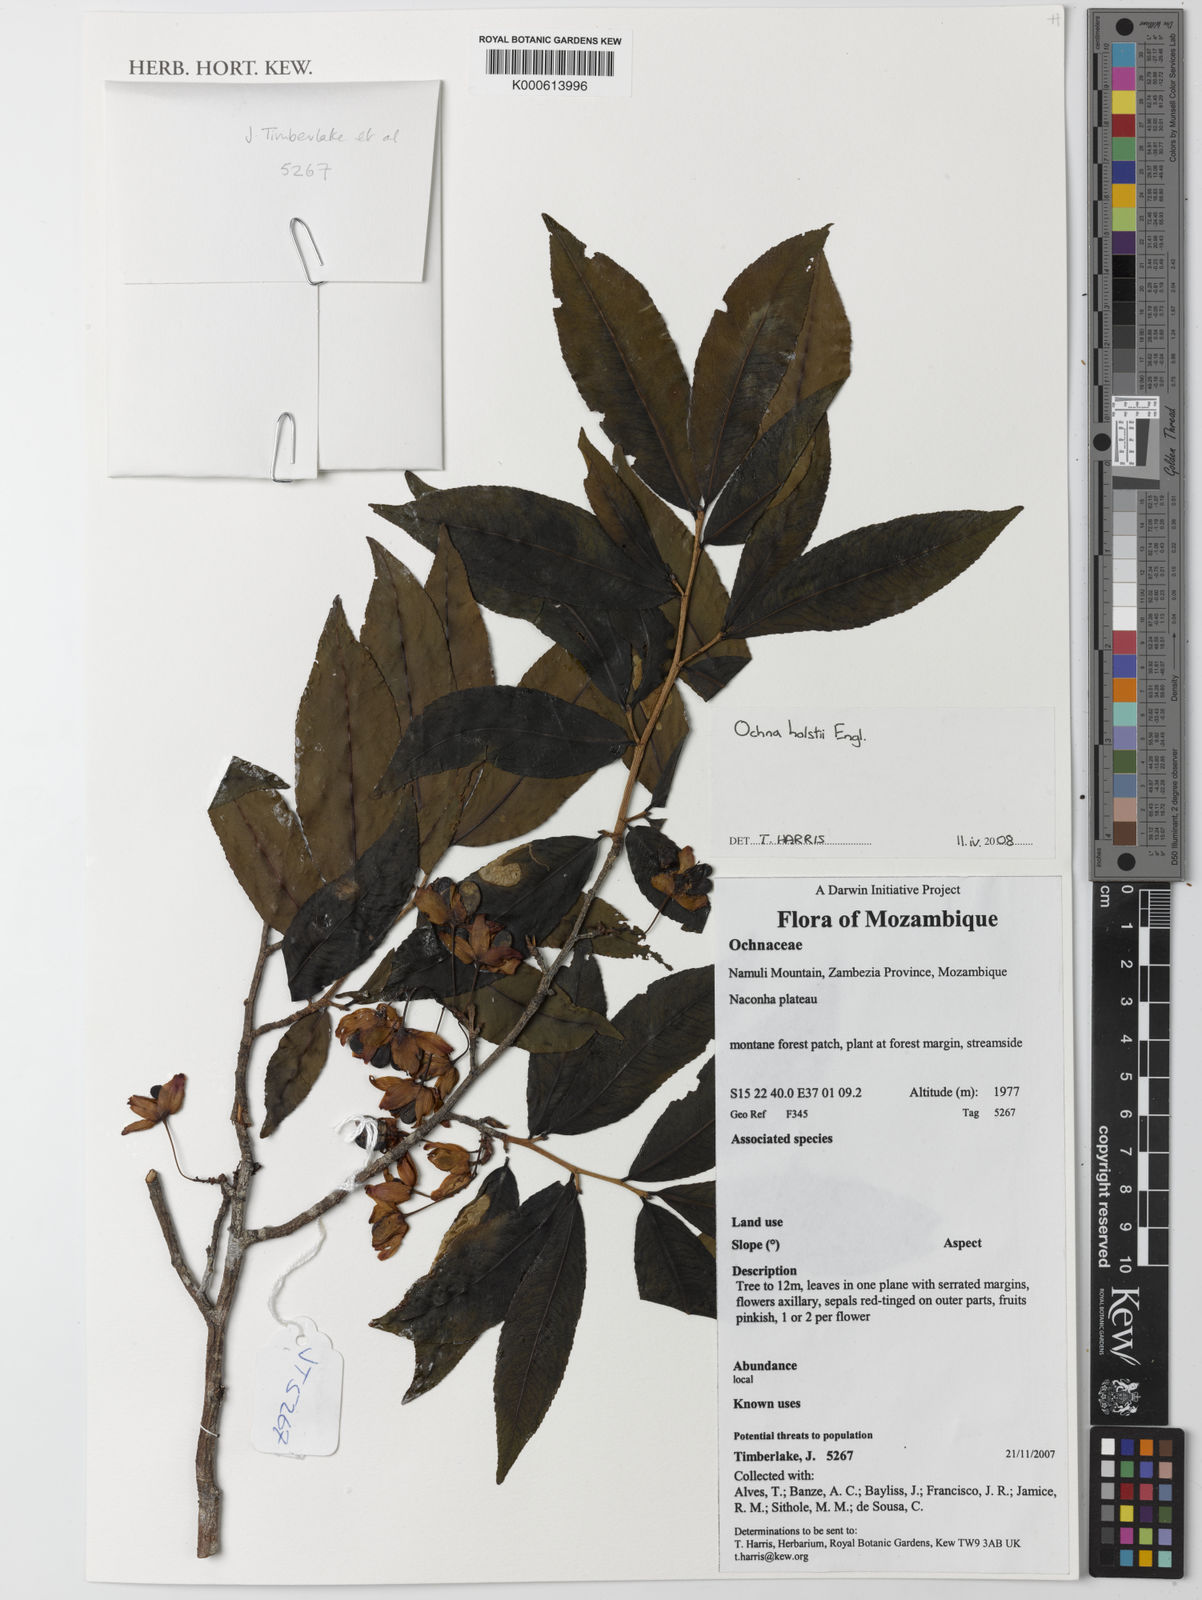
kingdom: Plantae
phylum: Tracheophyta
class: Magnoliopsida
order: Malpighiales
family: Ochnaceae
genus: Ochna
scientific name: Ochna holstii
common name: Red ironwood
